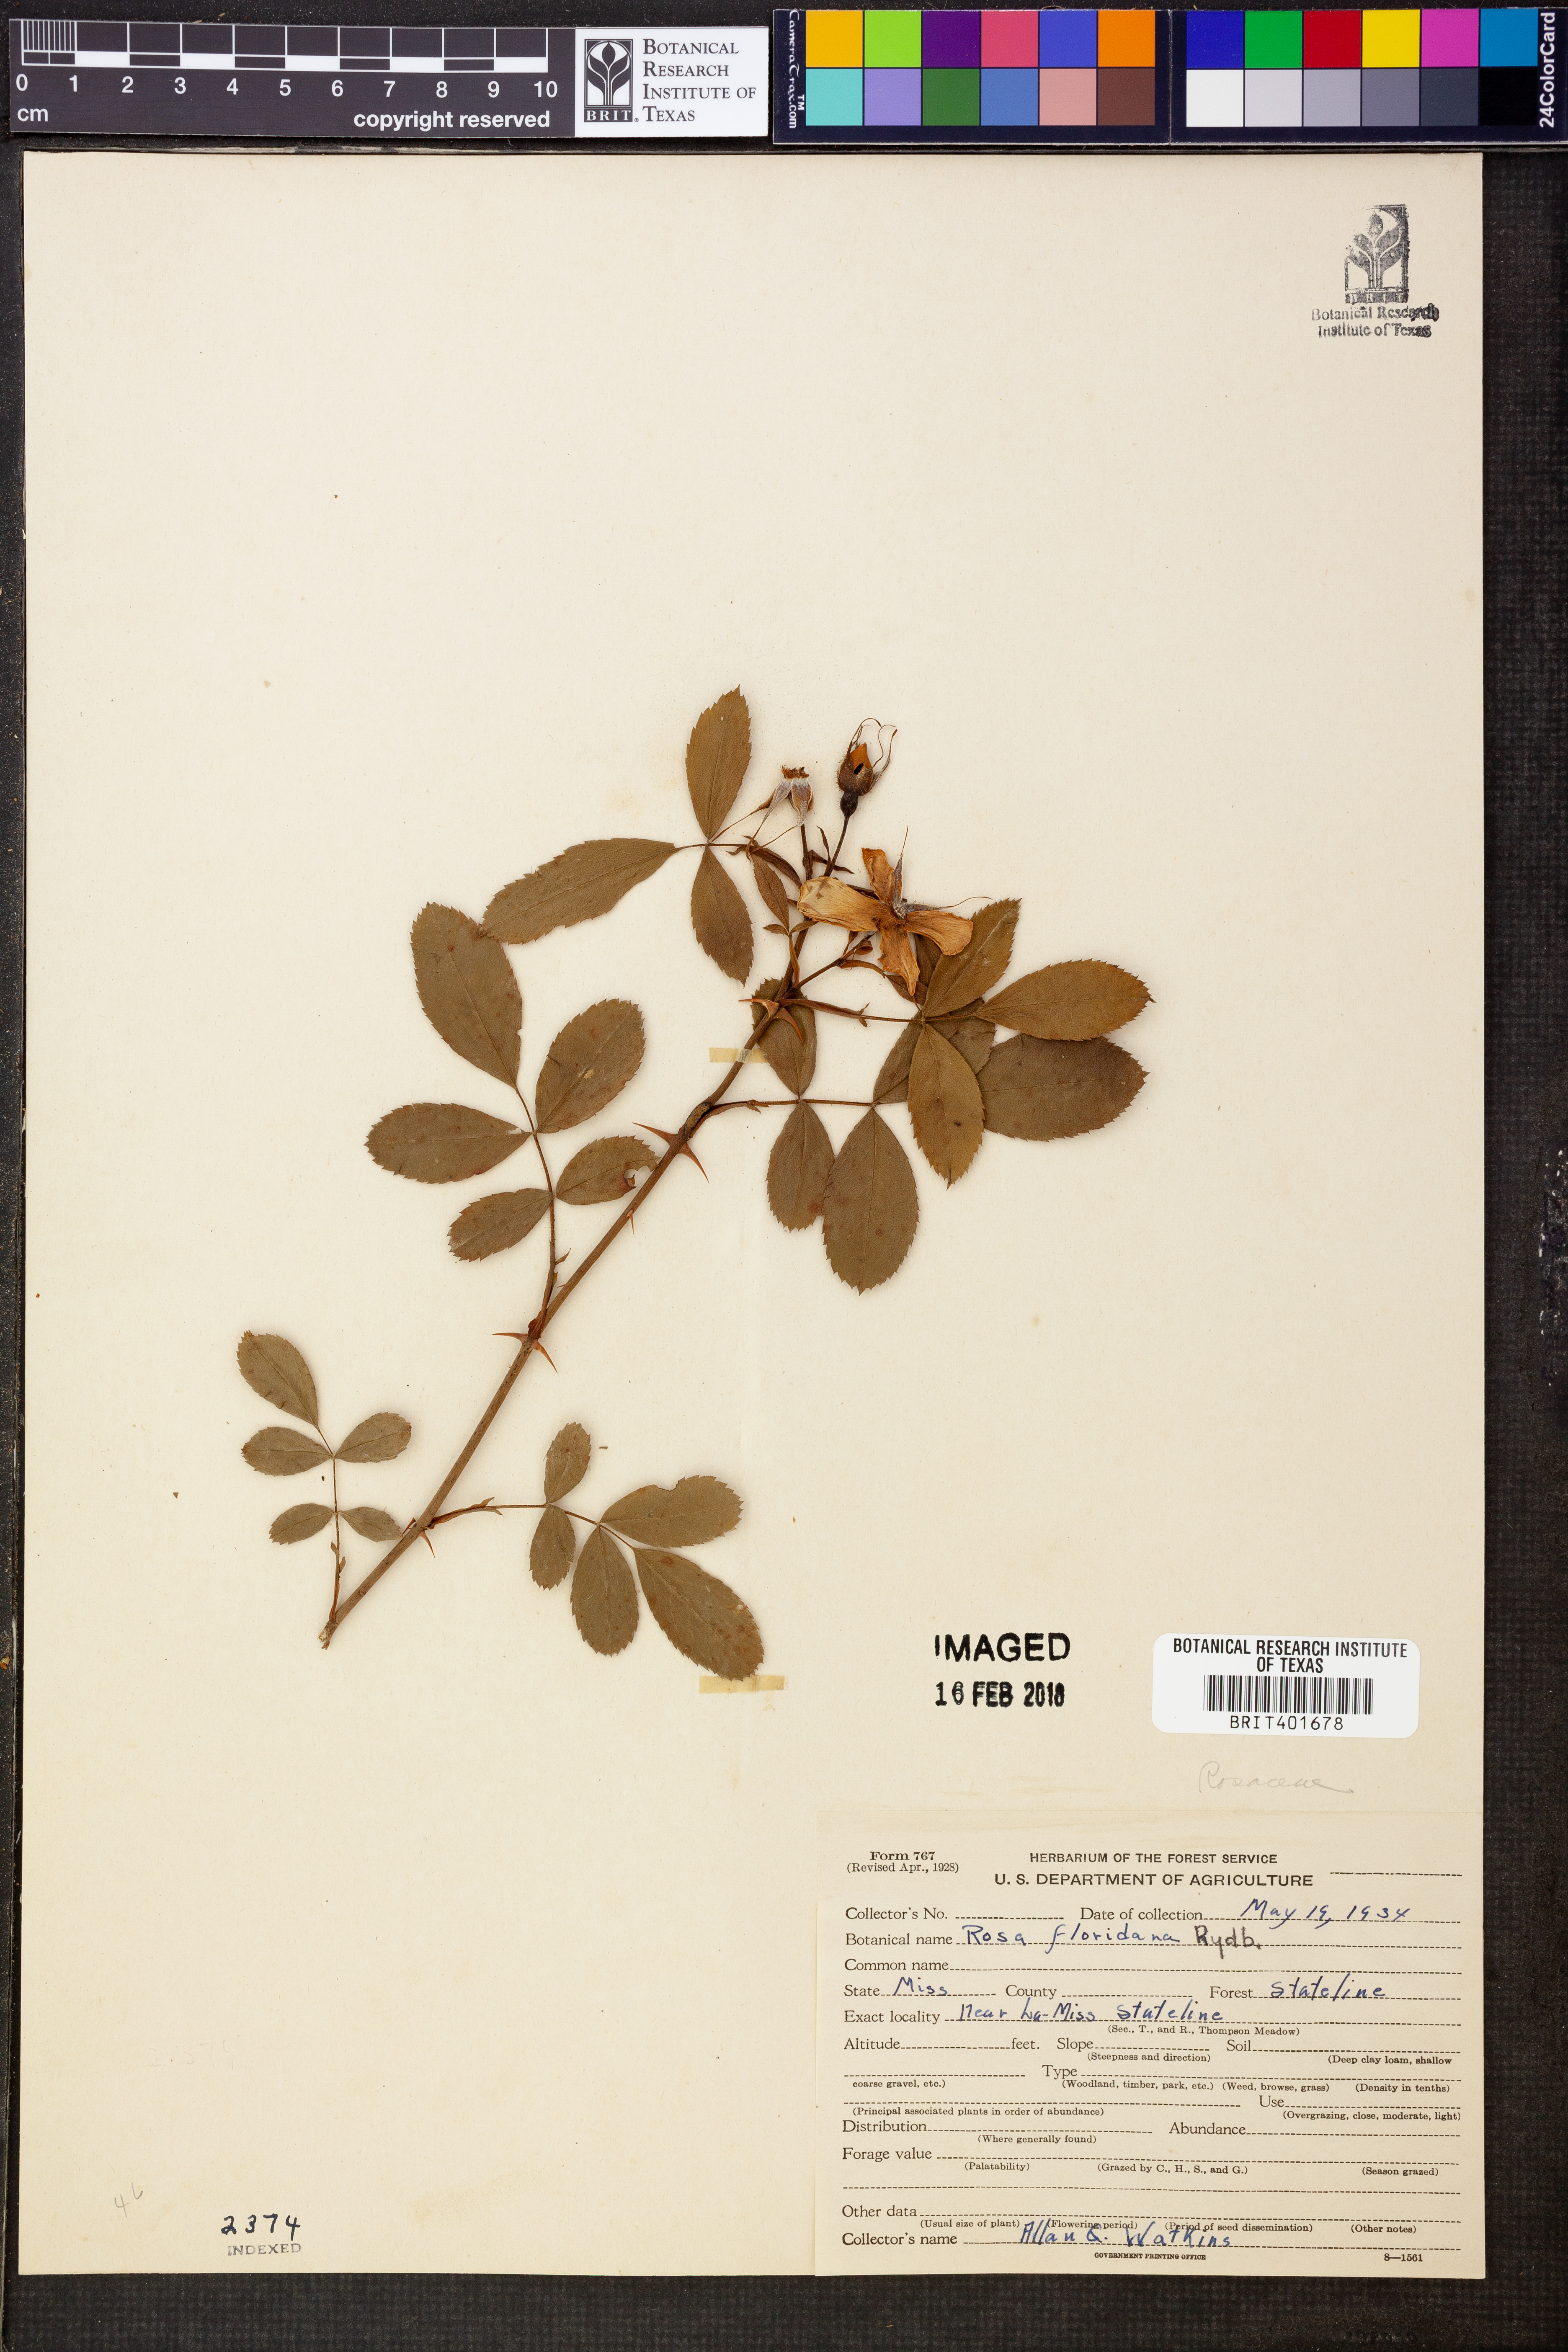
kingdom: Plantae
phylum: Tracheophyta
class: Magnoliopsida
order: Rosales
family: Rosaceae
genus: Rosa
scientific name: Rosa palustris
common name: Swamp rose
